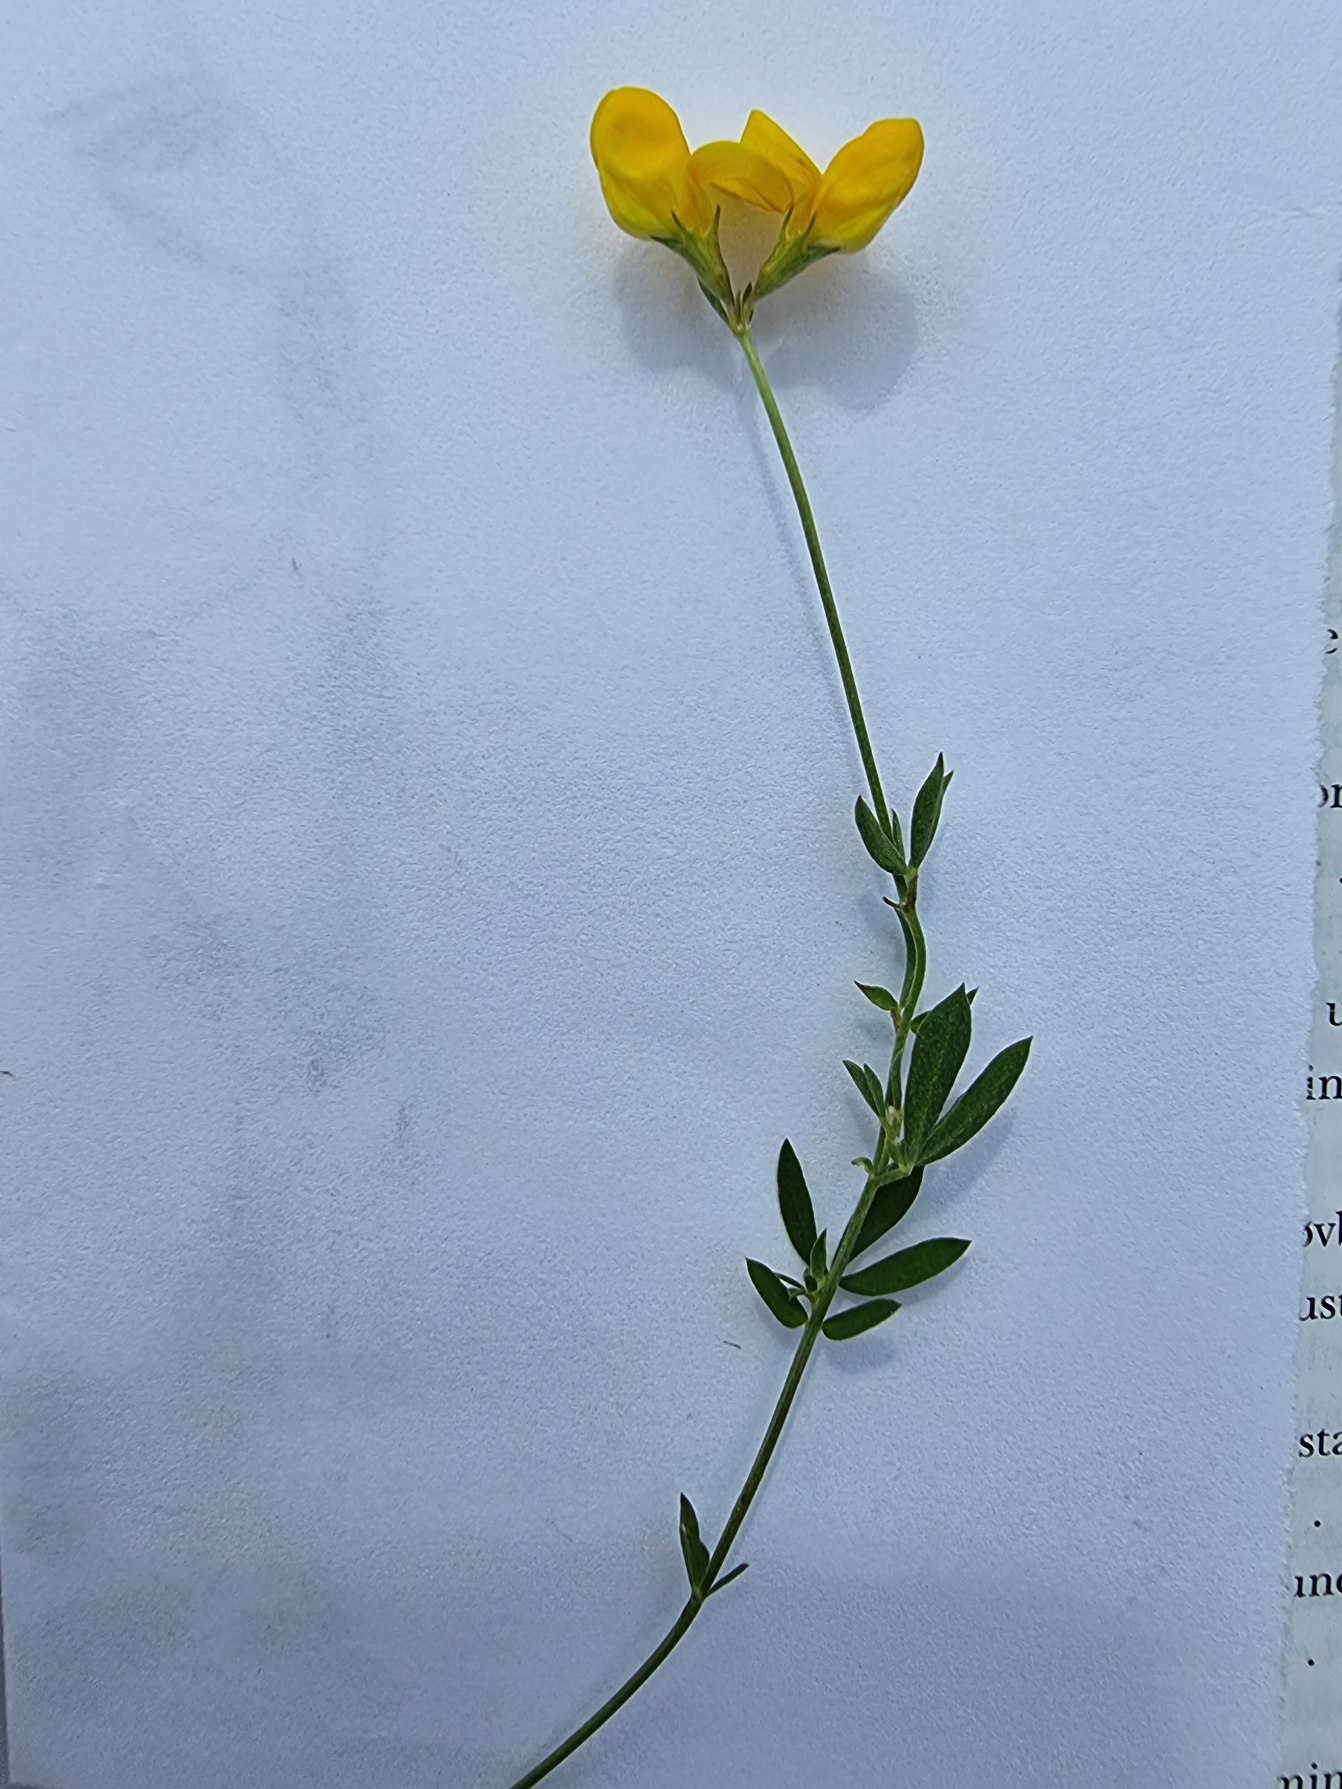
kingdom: Plantae
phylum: Tracheophyta
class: Magnoliopsida
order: Fabales
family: Fabaceae
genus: Lotus
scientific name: Lotus tenuis
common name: Smalbladet kællingetand
